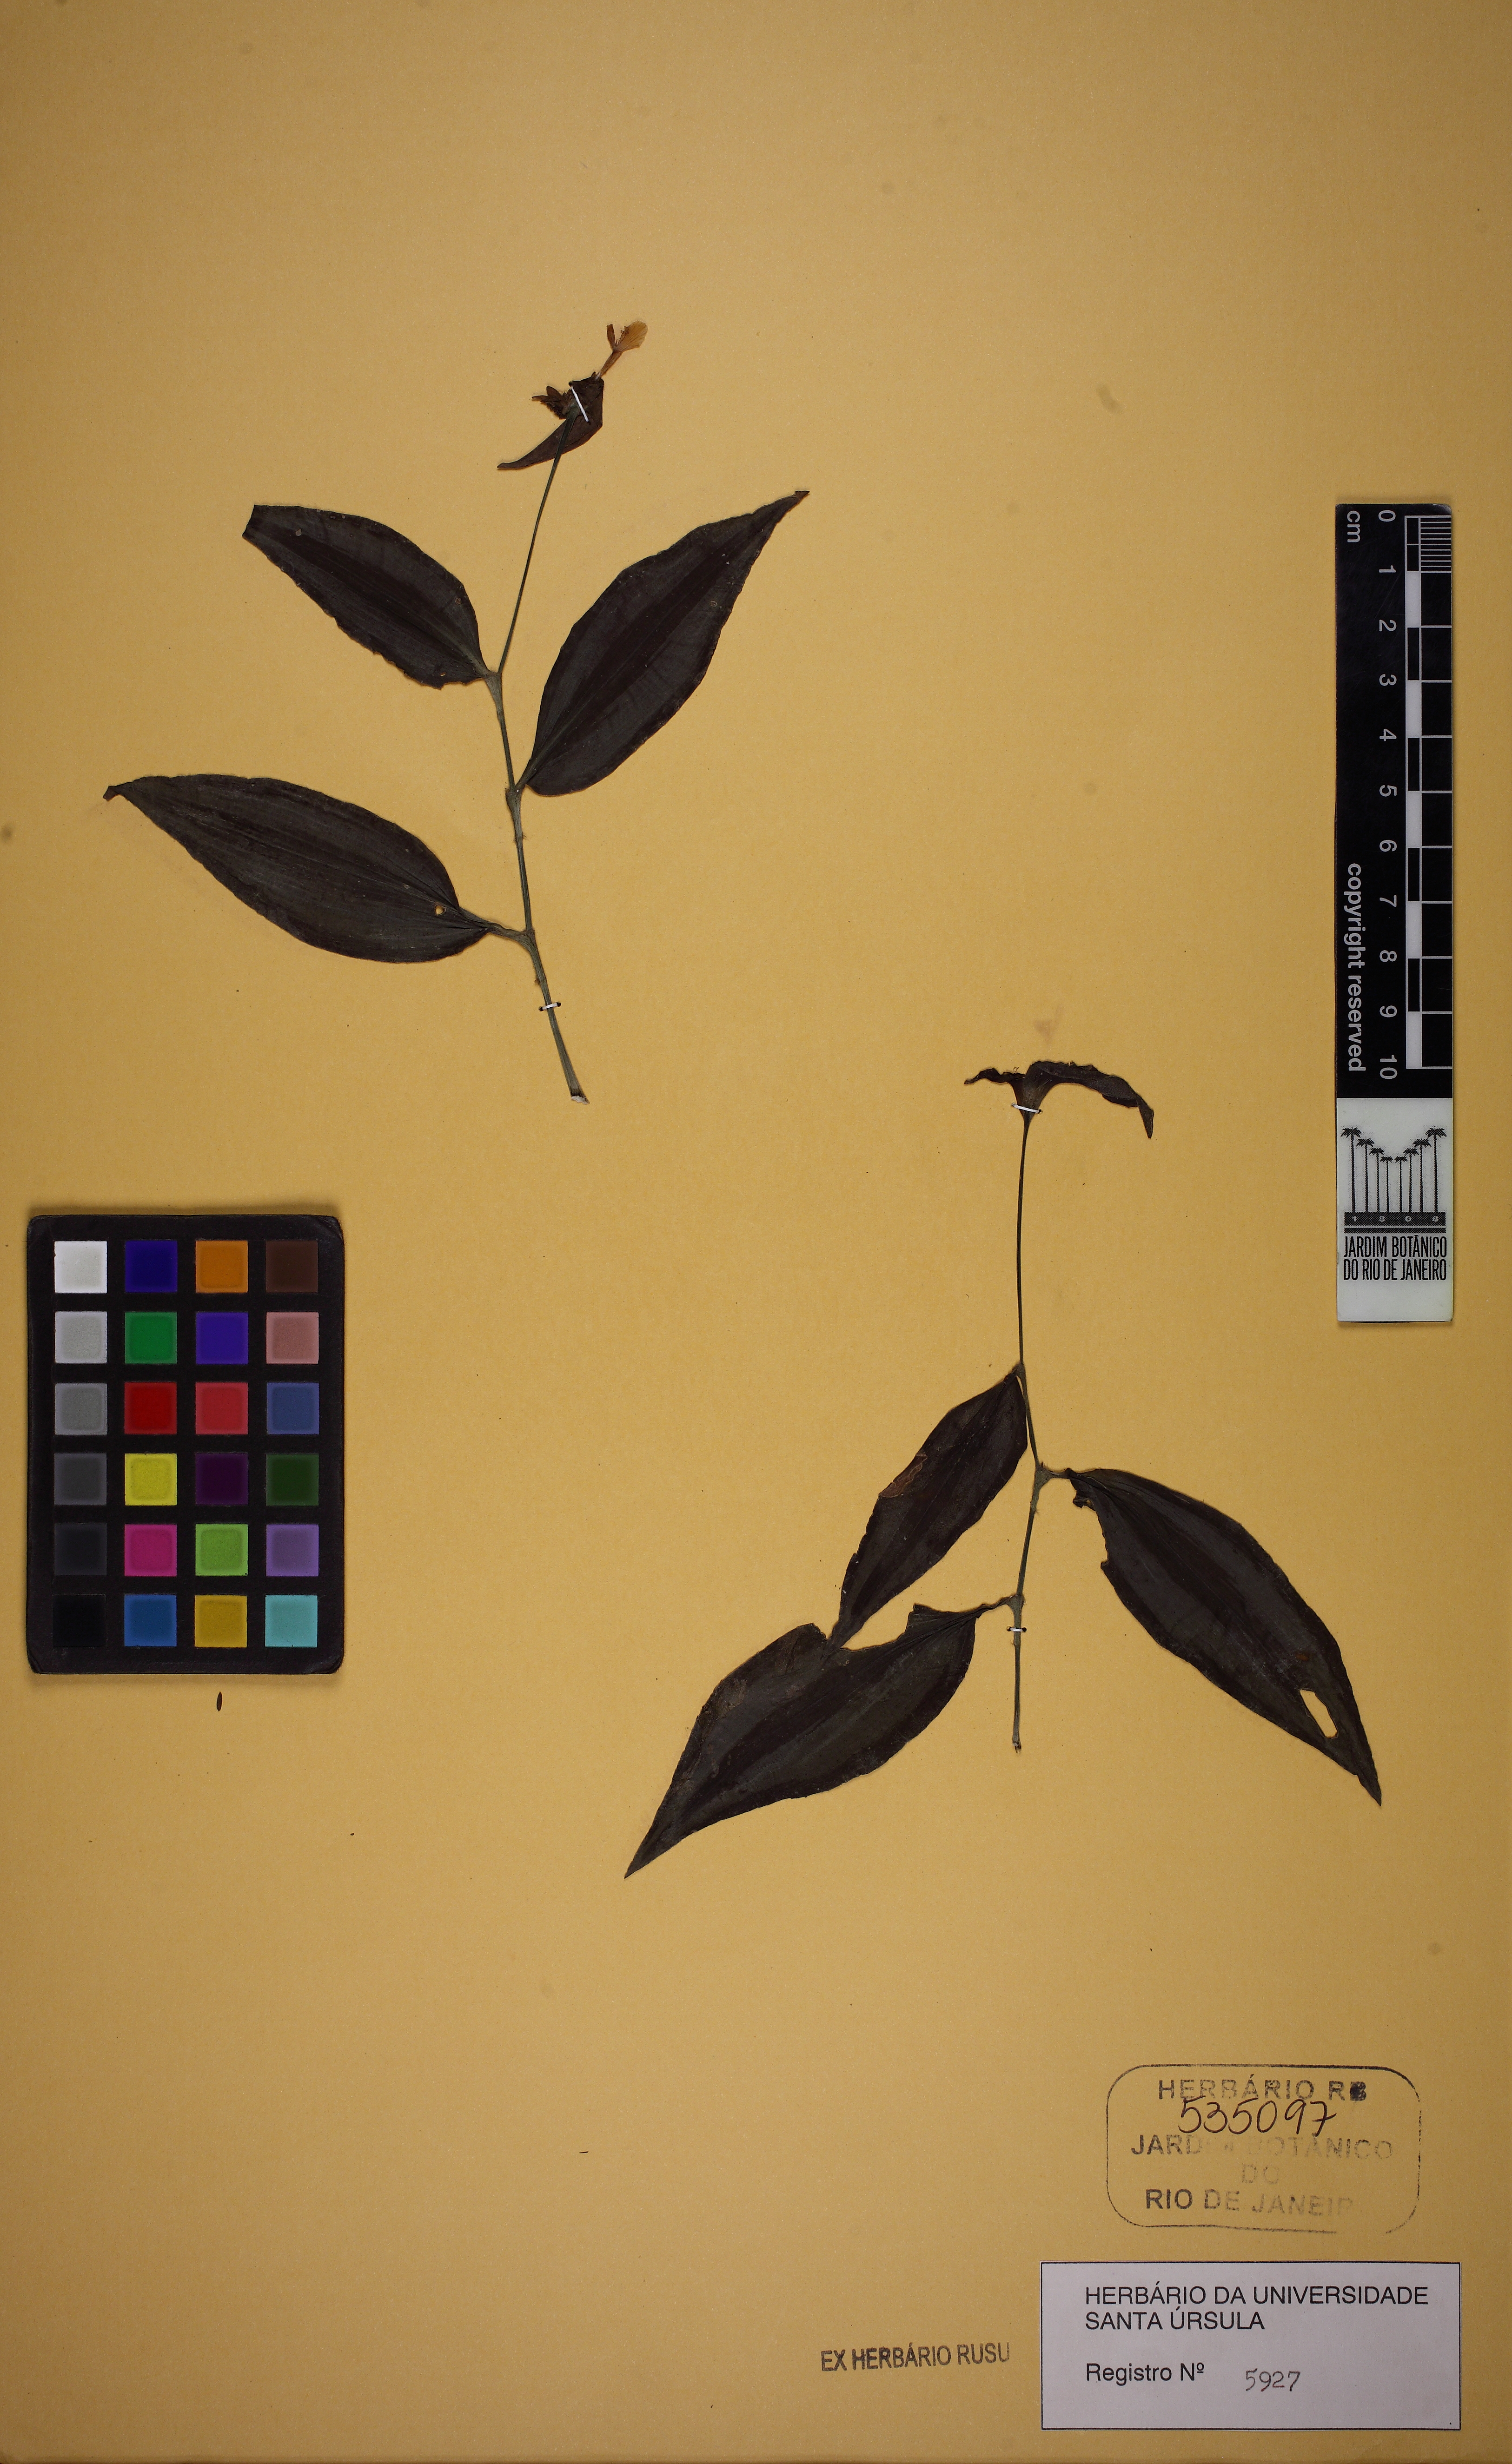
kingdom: Plantae
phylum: Tracheophyta
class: Liliopsida
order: Commelinales
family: Commelinaceae
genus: Tradescantia
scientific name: Tradescantia zebrina
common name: Inchplant
